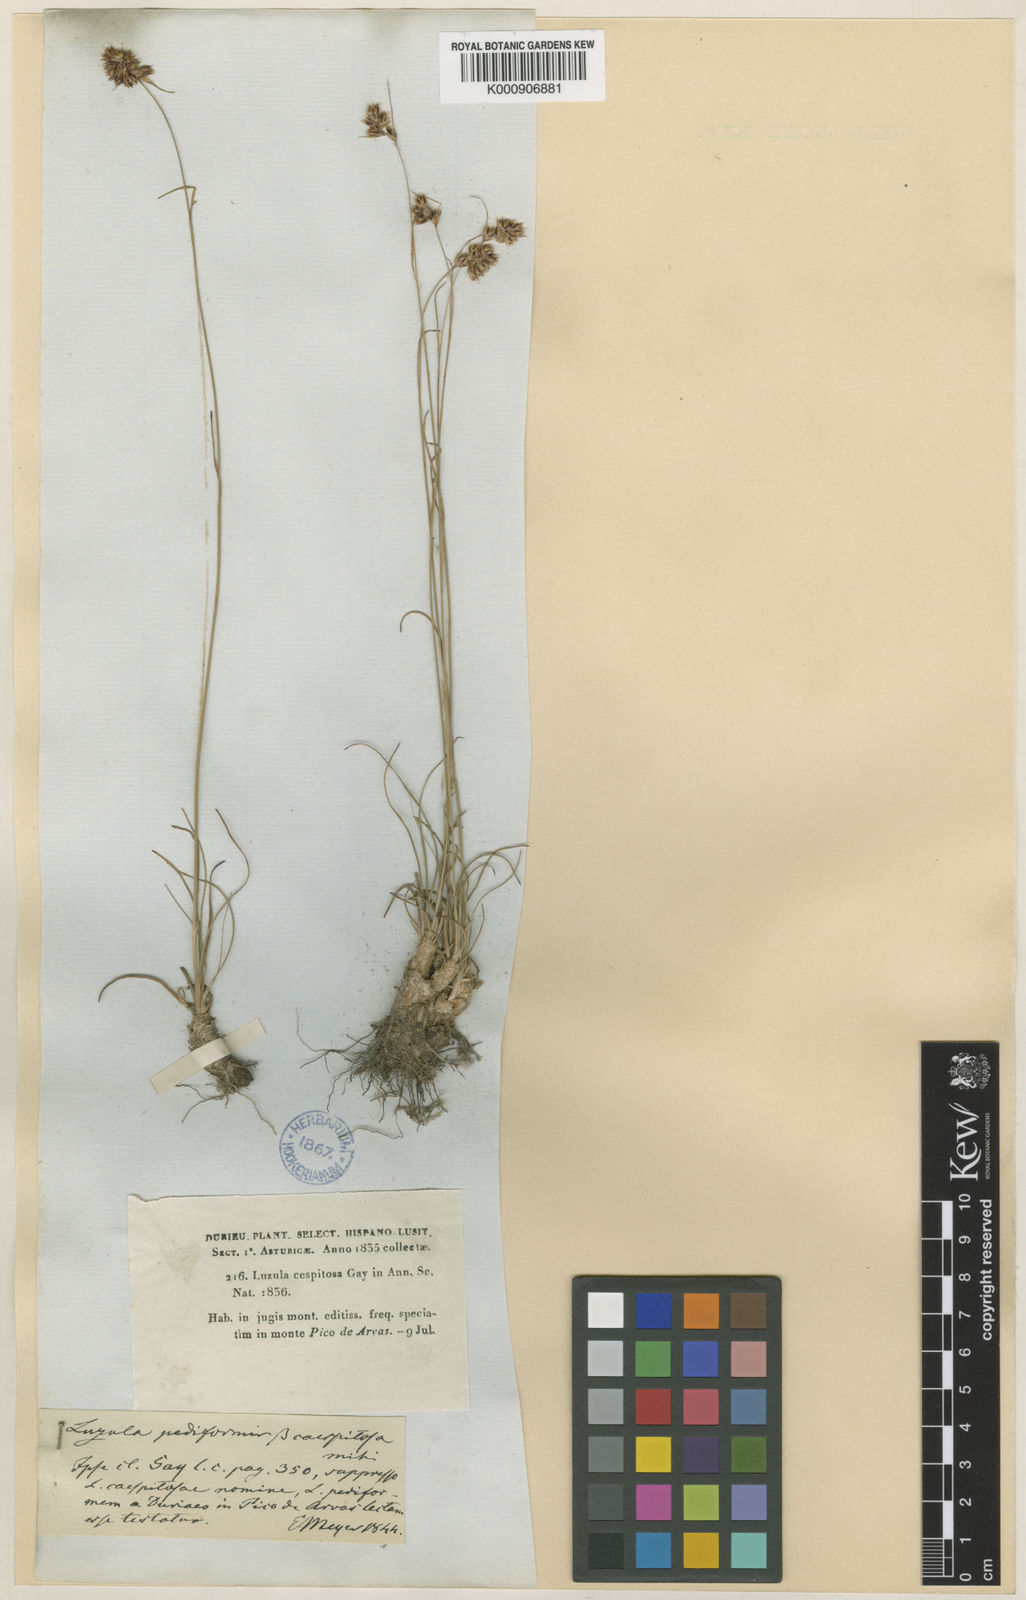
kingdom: Plantae
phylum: Tracheophyta
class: Liliopsida
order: Poales
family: Juncaceae
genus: Luzula
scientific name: Luzula
